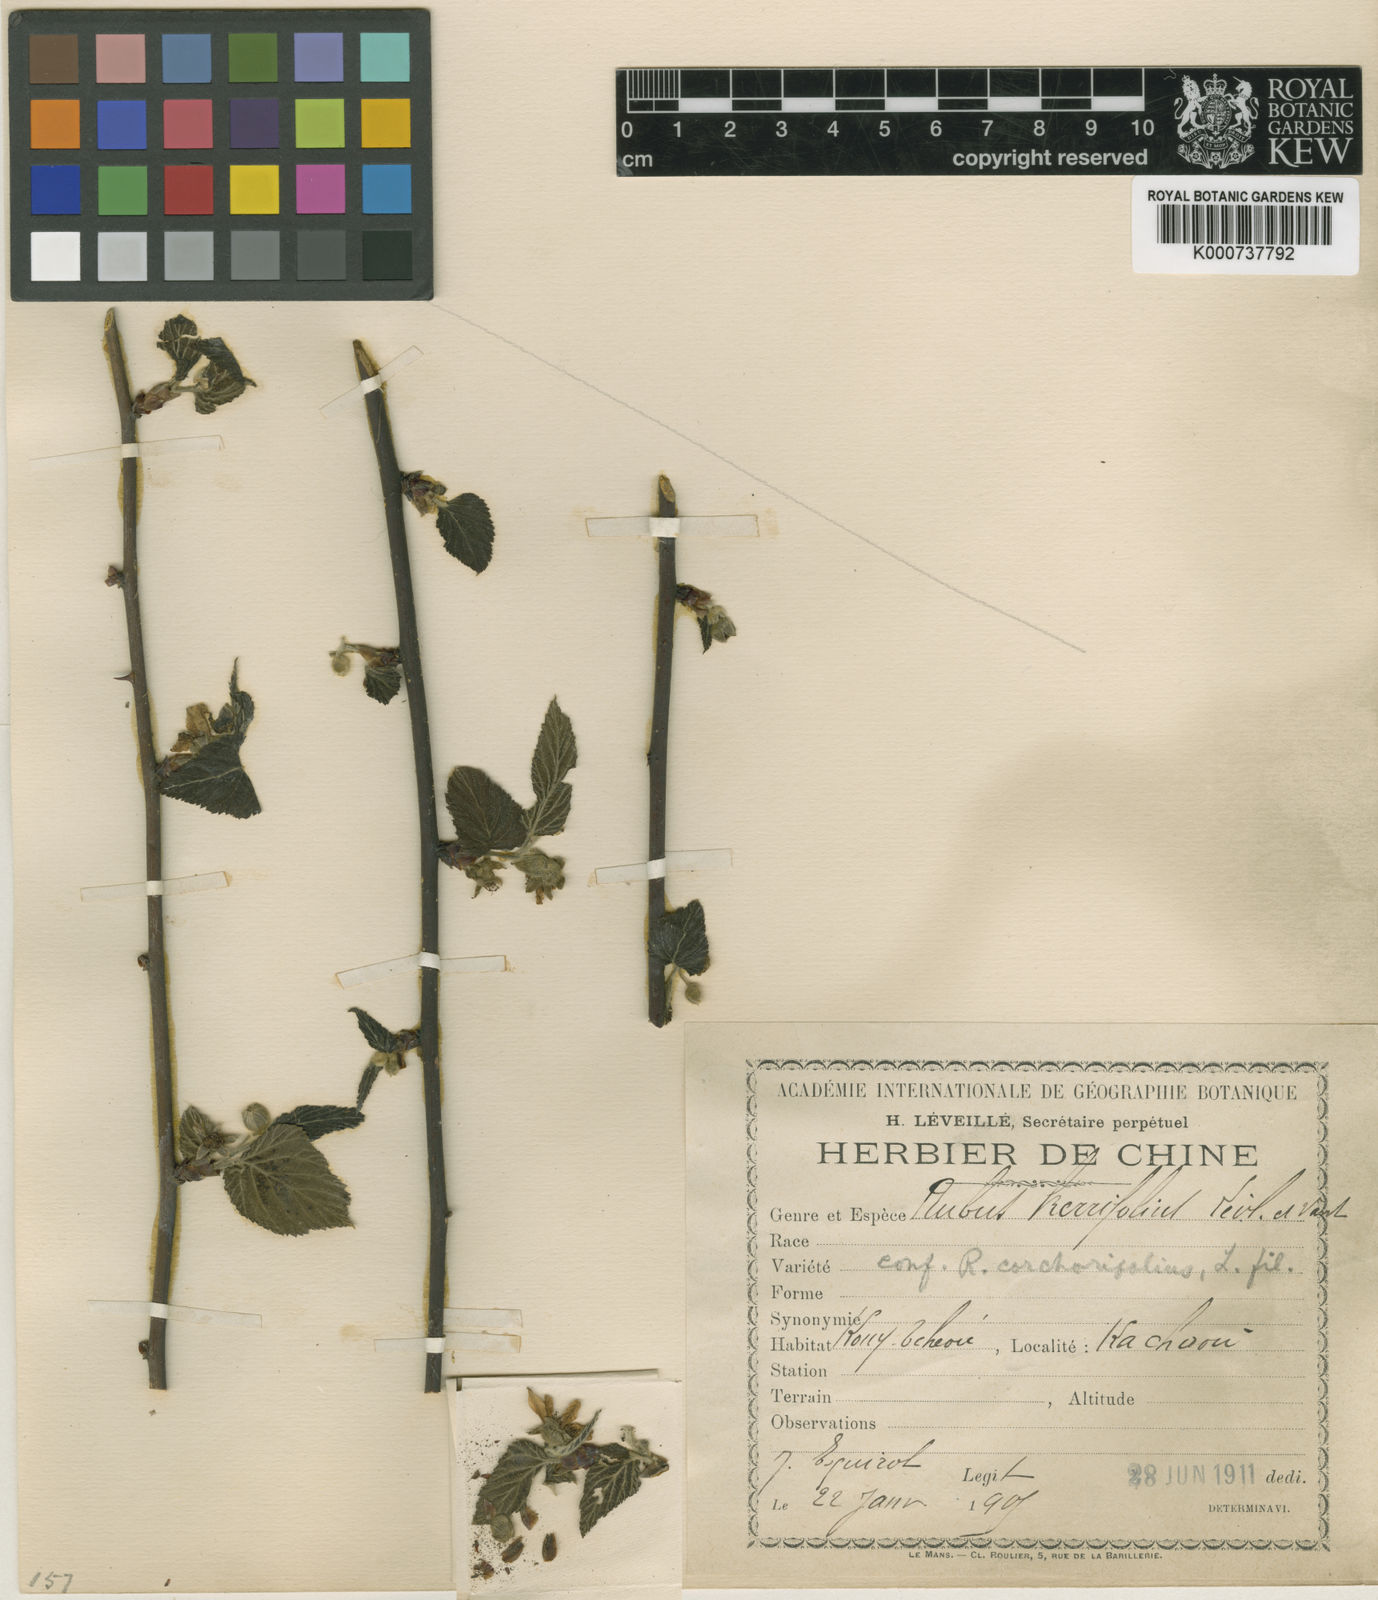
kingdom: Plantae
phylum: Tracheophyta
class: Magnoliopsida
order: Rosales
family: Rosaceae
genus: Rubus
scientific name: Rubus corchorifolius
